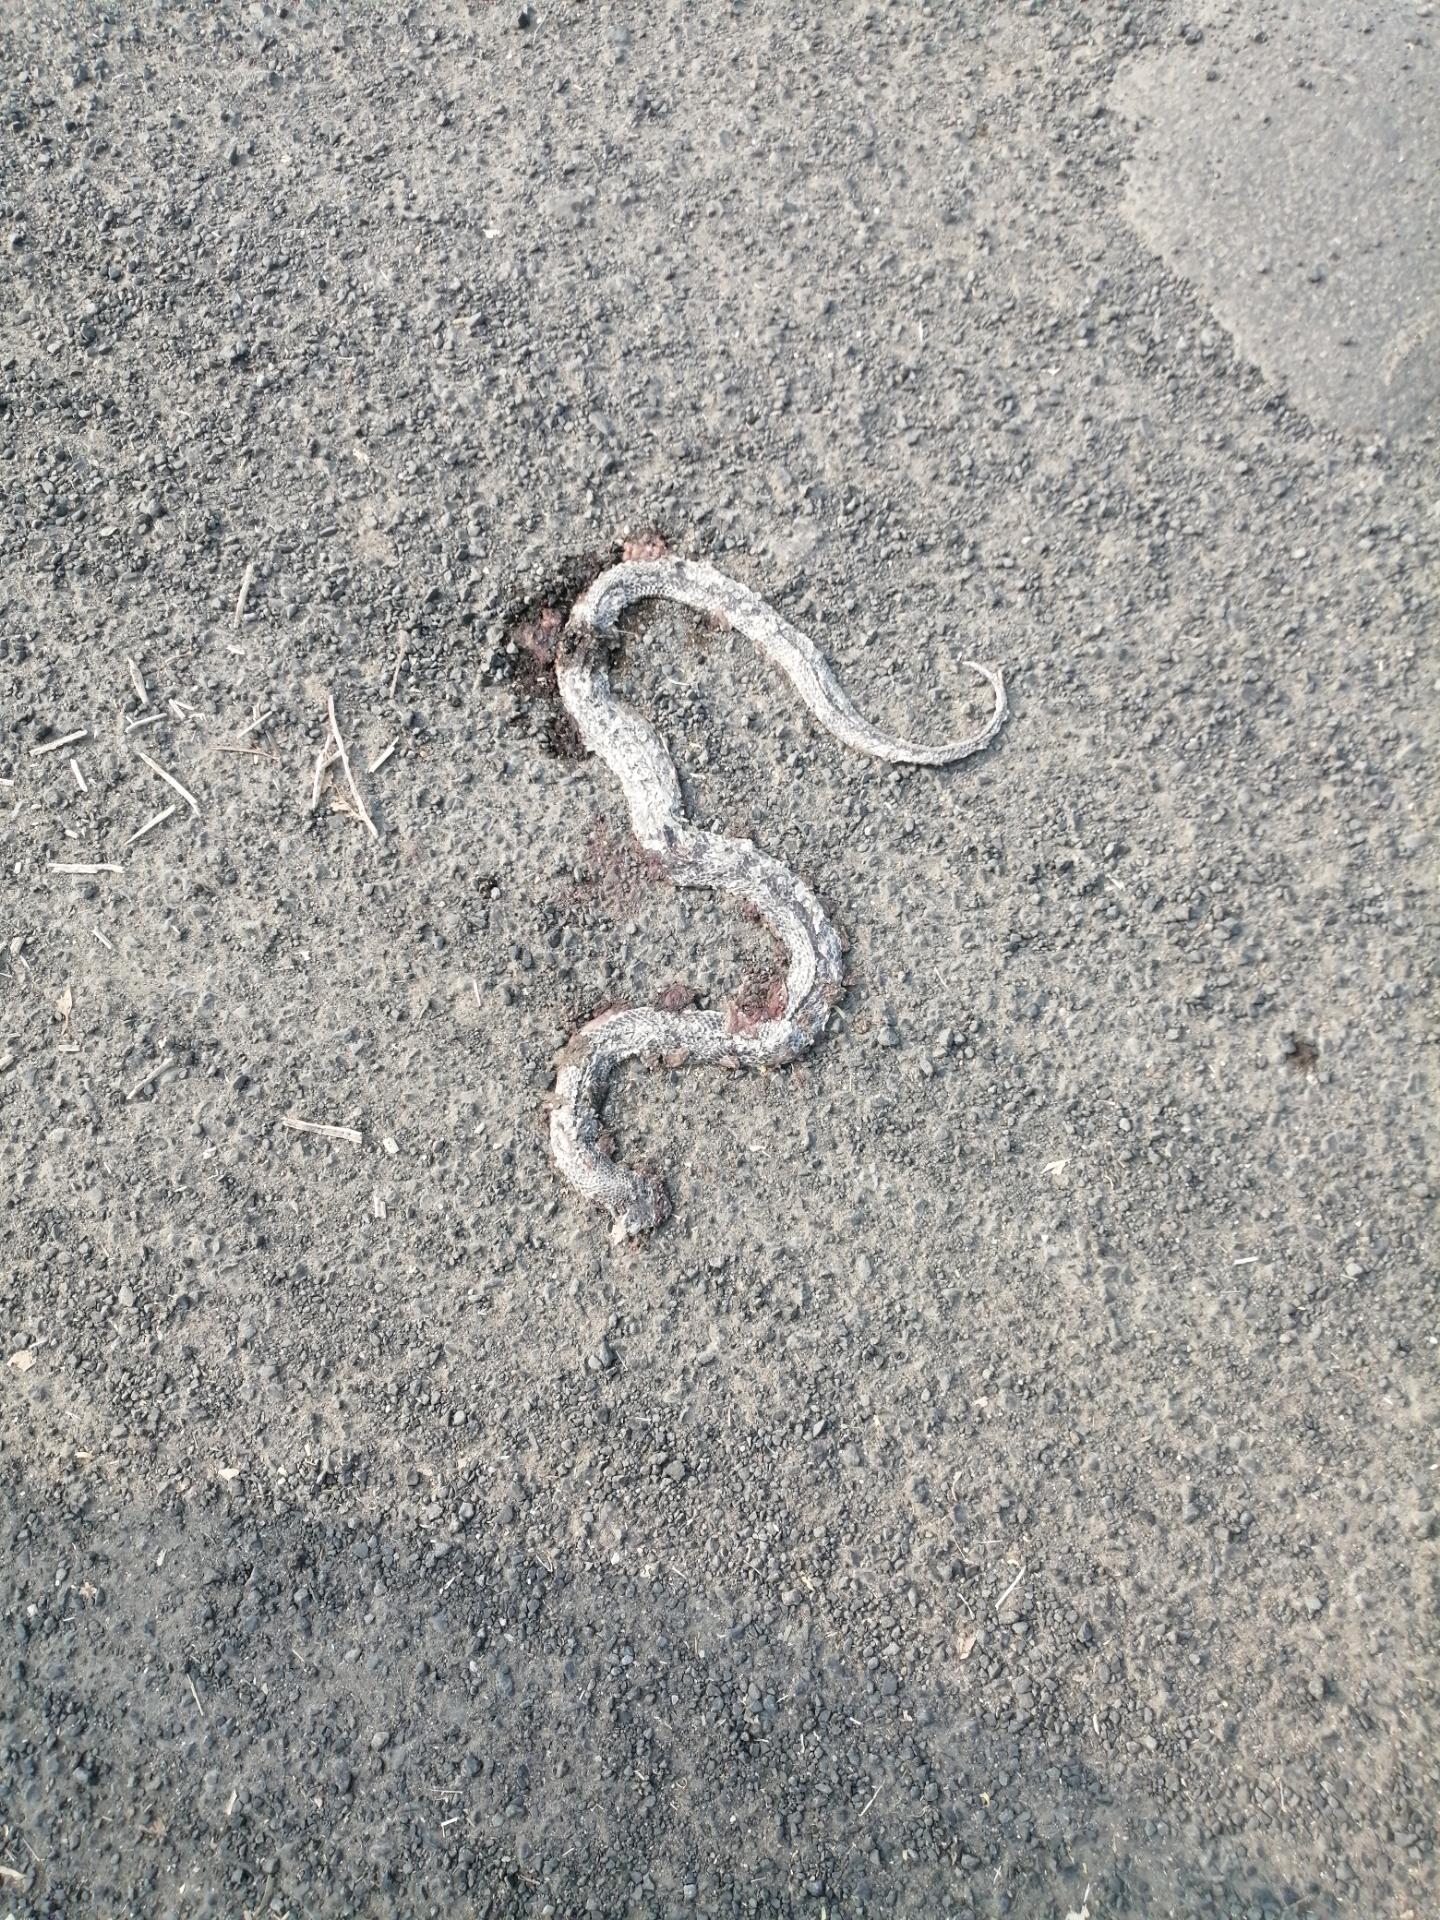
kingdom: Animalia
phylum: Chordata
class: Squamata
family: Elapidae
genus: Naja
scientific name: Naja naja
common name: Indian cobra
